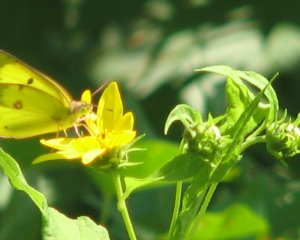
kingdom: Animalia
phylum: Arthropoda
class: Insecta
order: Lepidoptera
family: Pieridae
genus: Colias
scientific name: Colias philodice
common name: Clouded Sulphur
